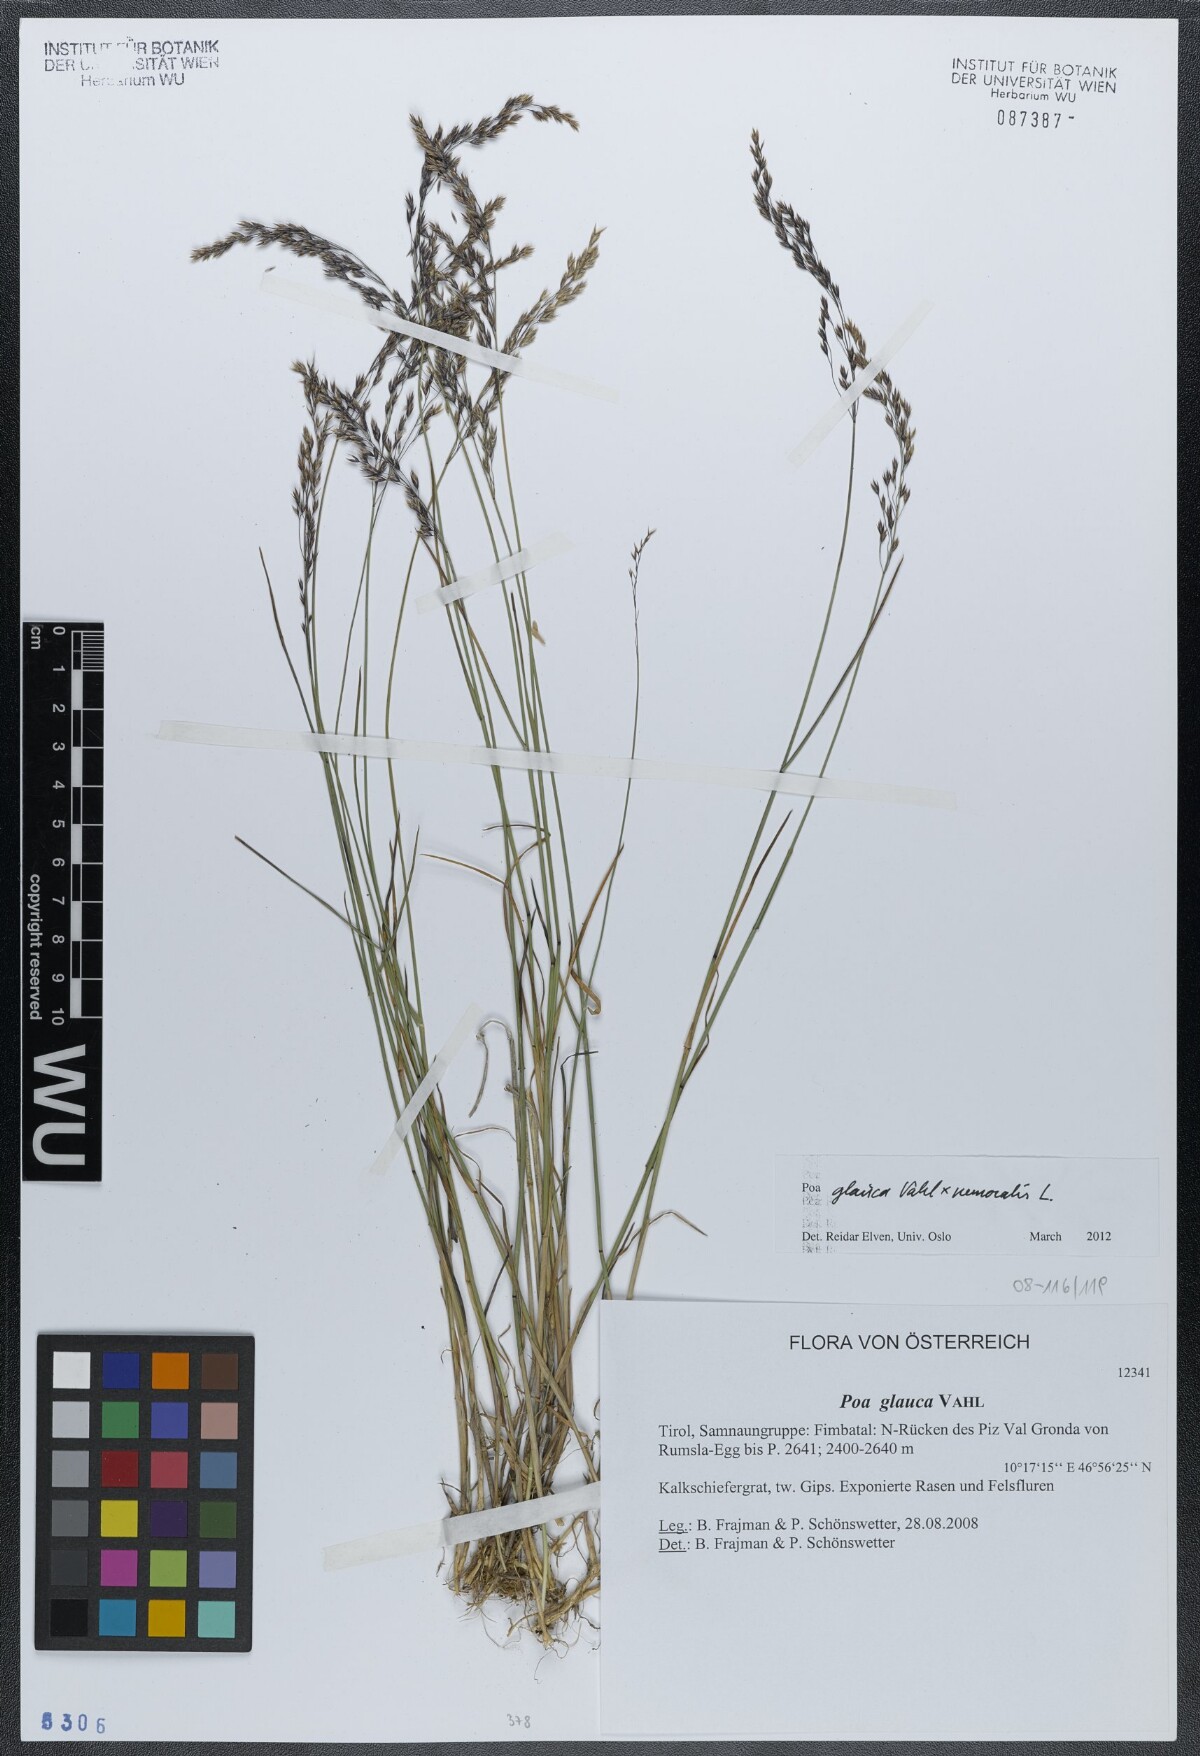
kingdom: Plantae
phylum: Tracheophyta
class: Liliopsida
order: Poales
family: Poaceae
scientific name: Poaceae
